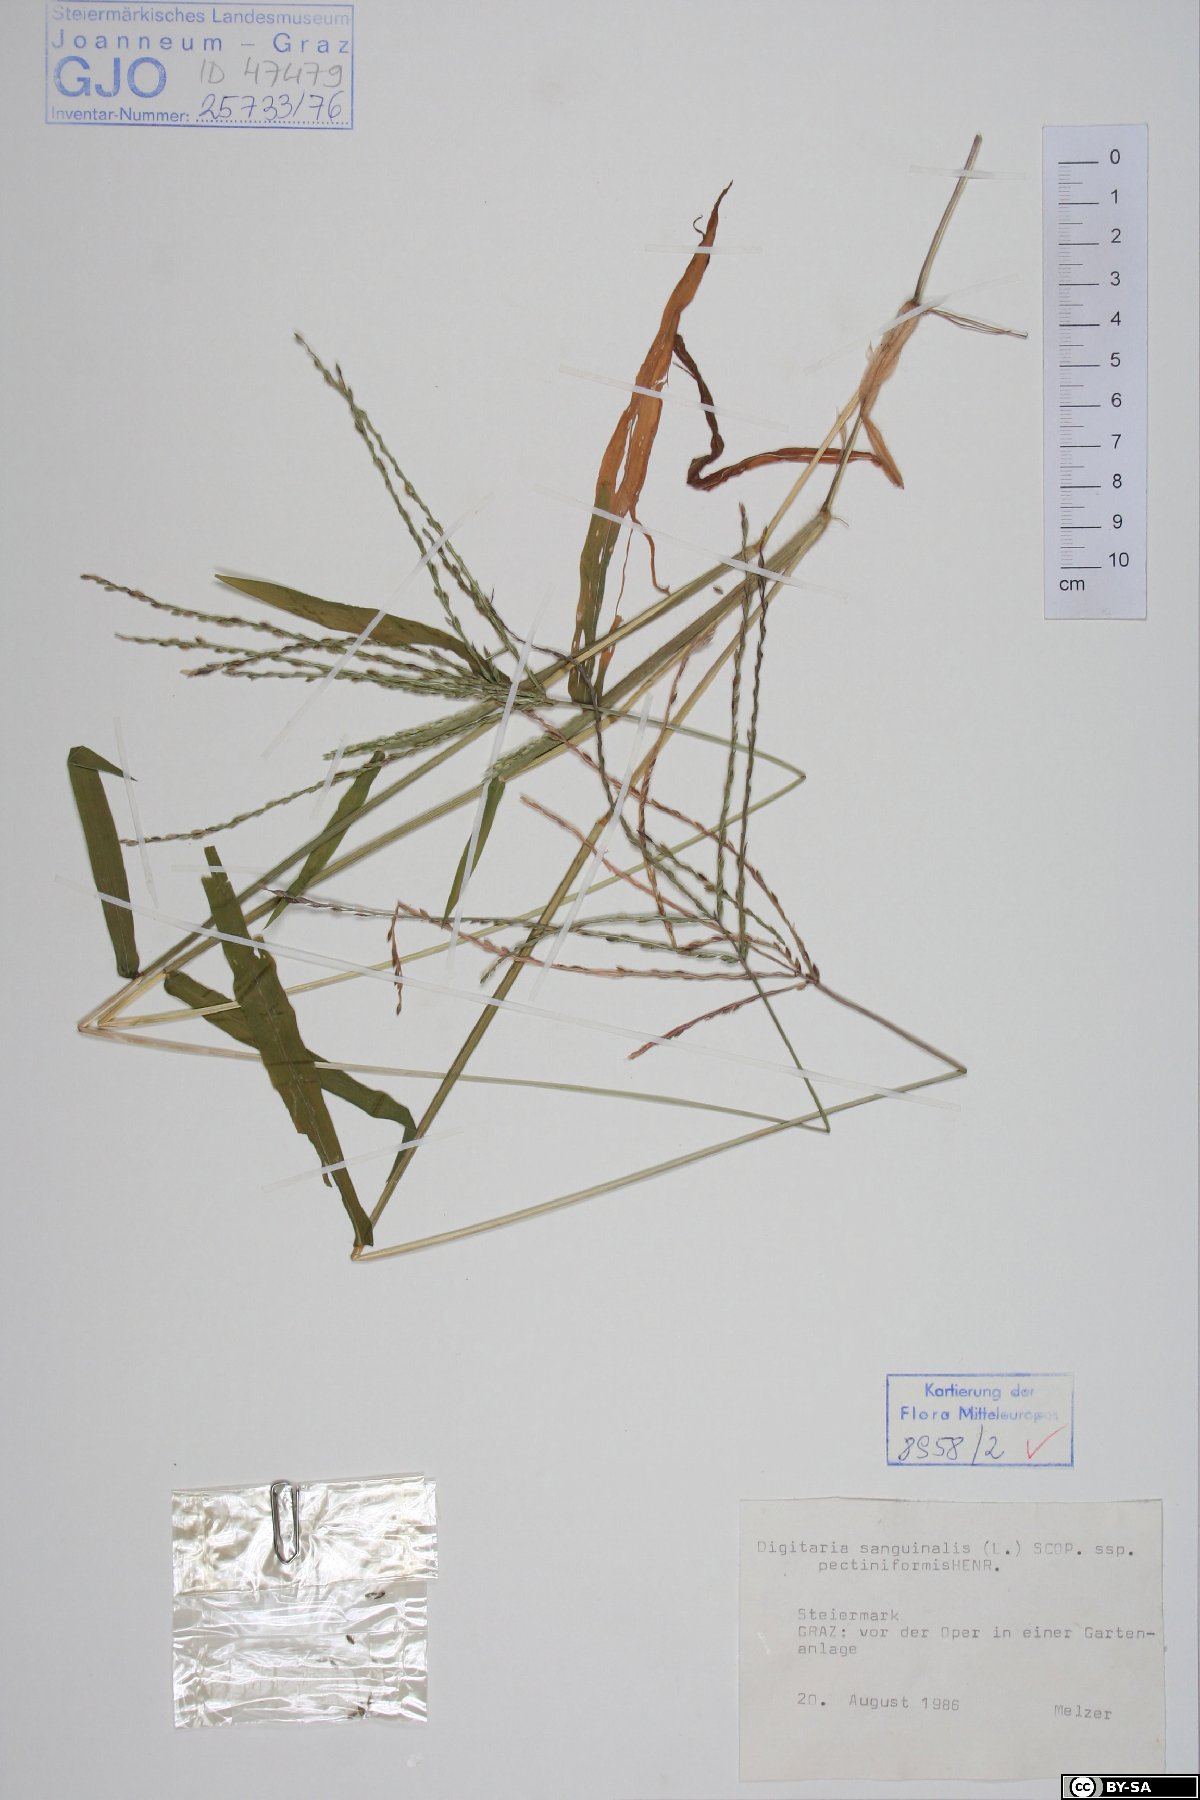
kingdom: Plantae
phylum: Tracheophyta
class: Liliopsida
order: Poales
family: Poaceae
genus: Digitaria
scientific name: Digitaria sanguinalis
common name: Hairy crabgrass
